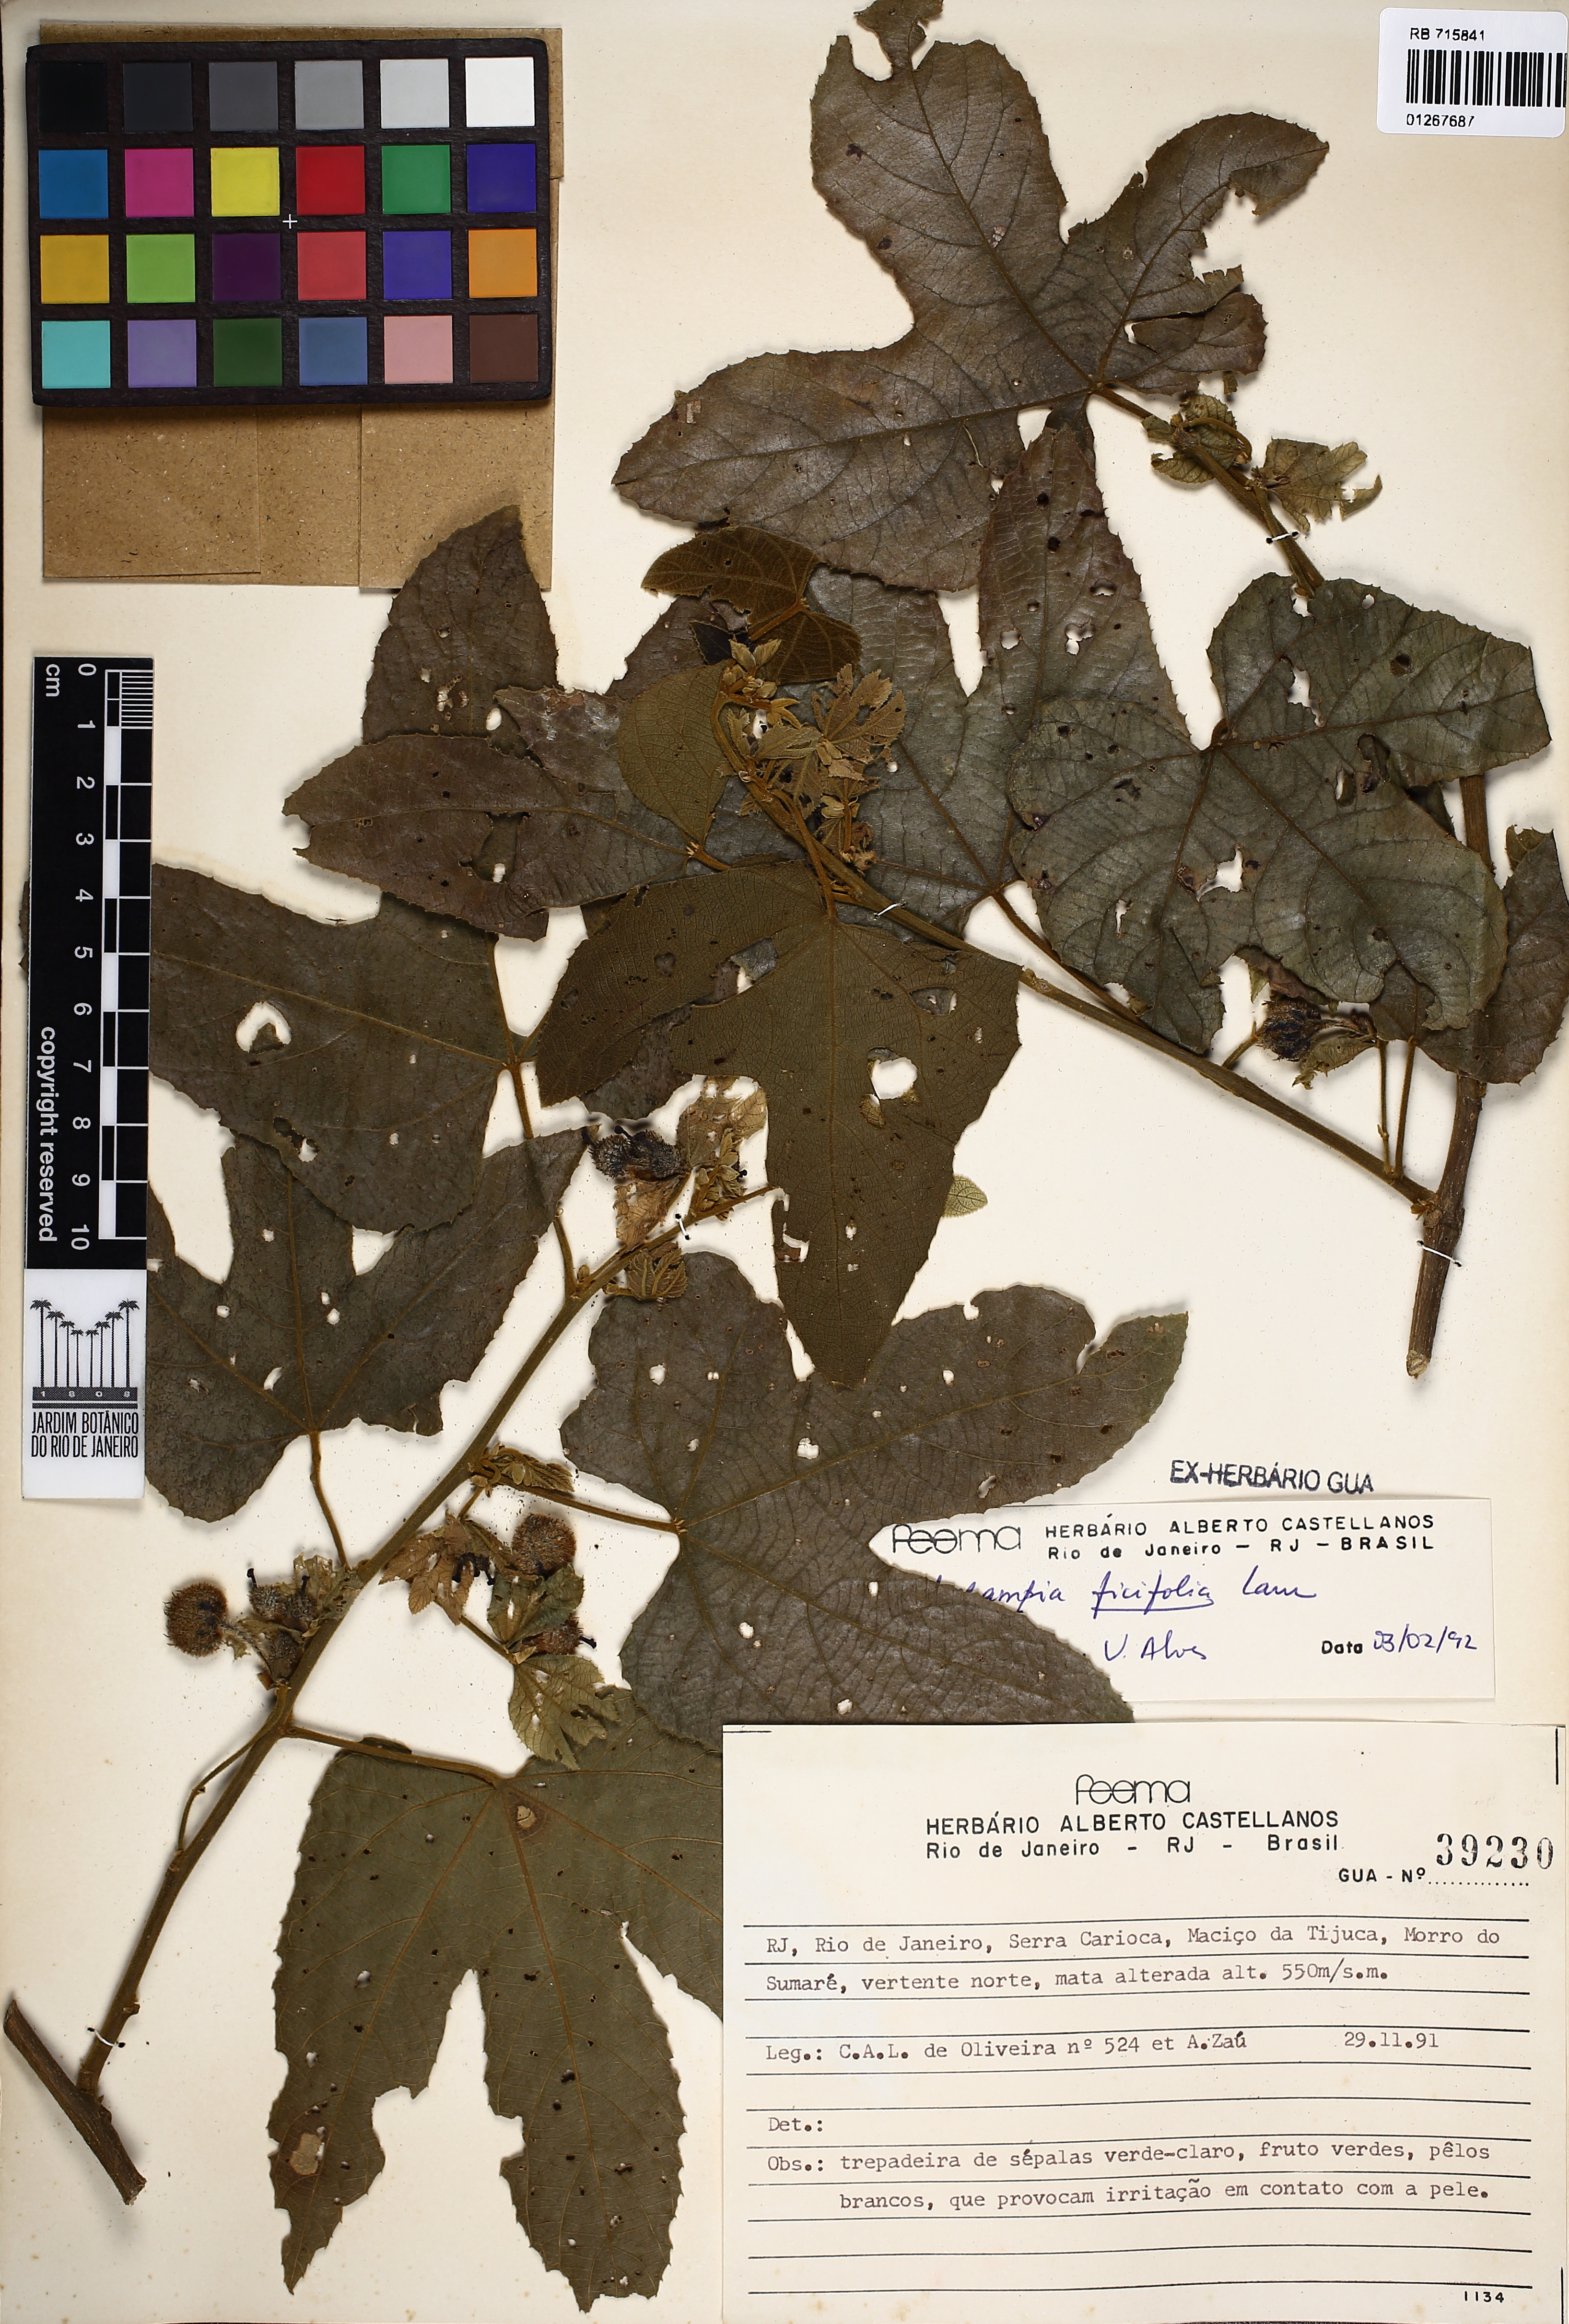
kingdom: Plantae
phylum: Tracheophyta
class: Magnoliopsida
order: Malpighiales
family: Euphorbiaceae
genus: Dalechampia
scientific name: Dalechampia ficifolia
